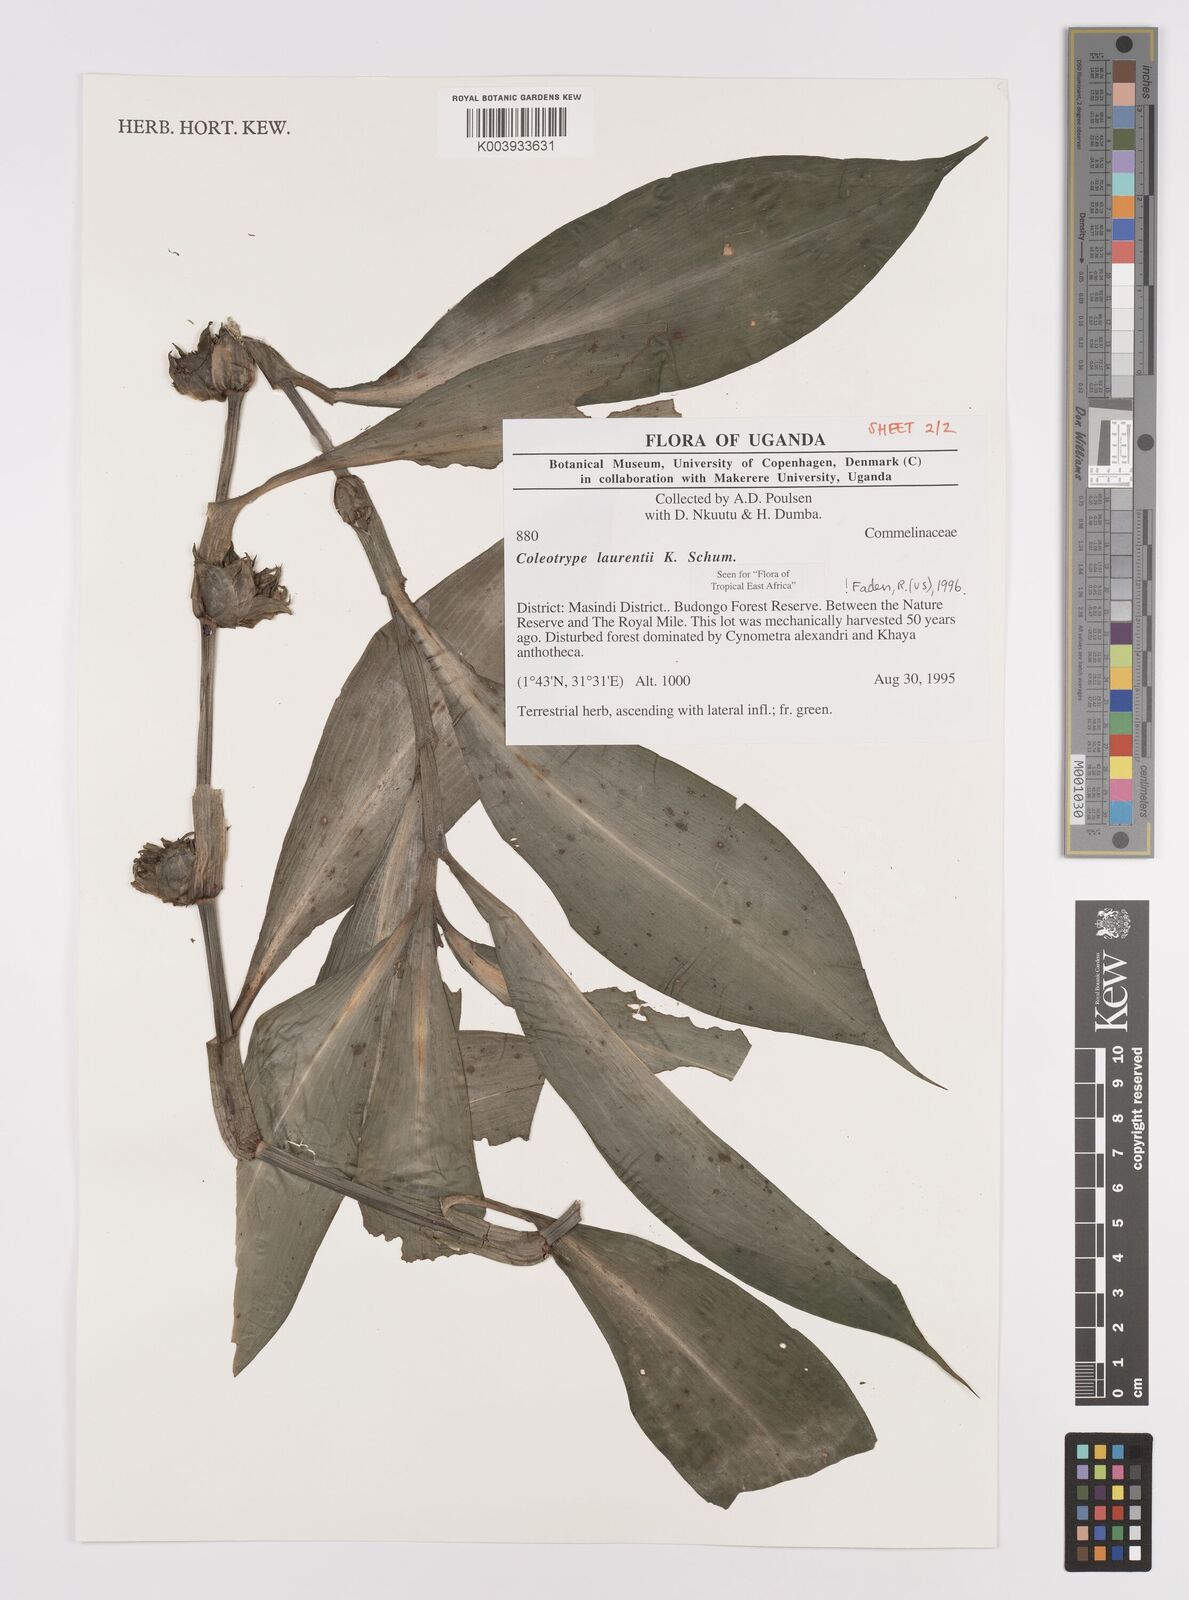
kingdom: Plantae
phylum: Tracheophyta
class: Liliopsida
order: Commelinales
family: Commelinaceae
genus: Coleotrype
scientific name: Coleotrype laurentii
